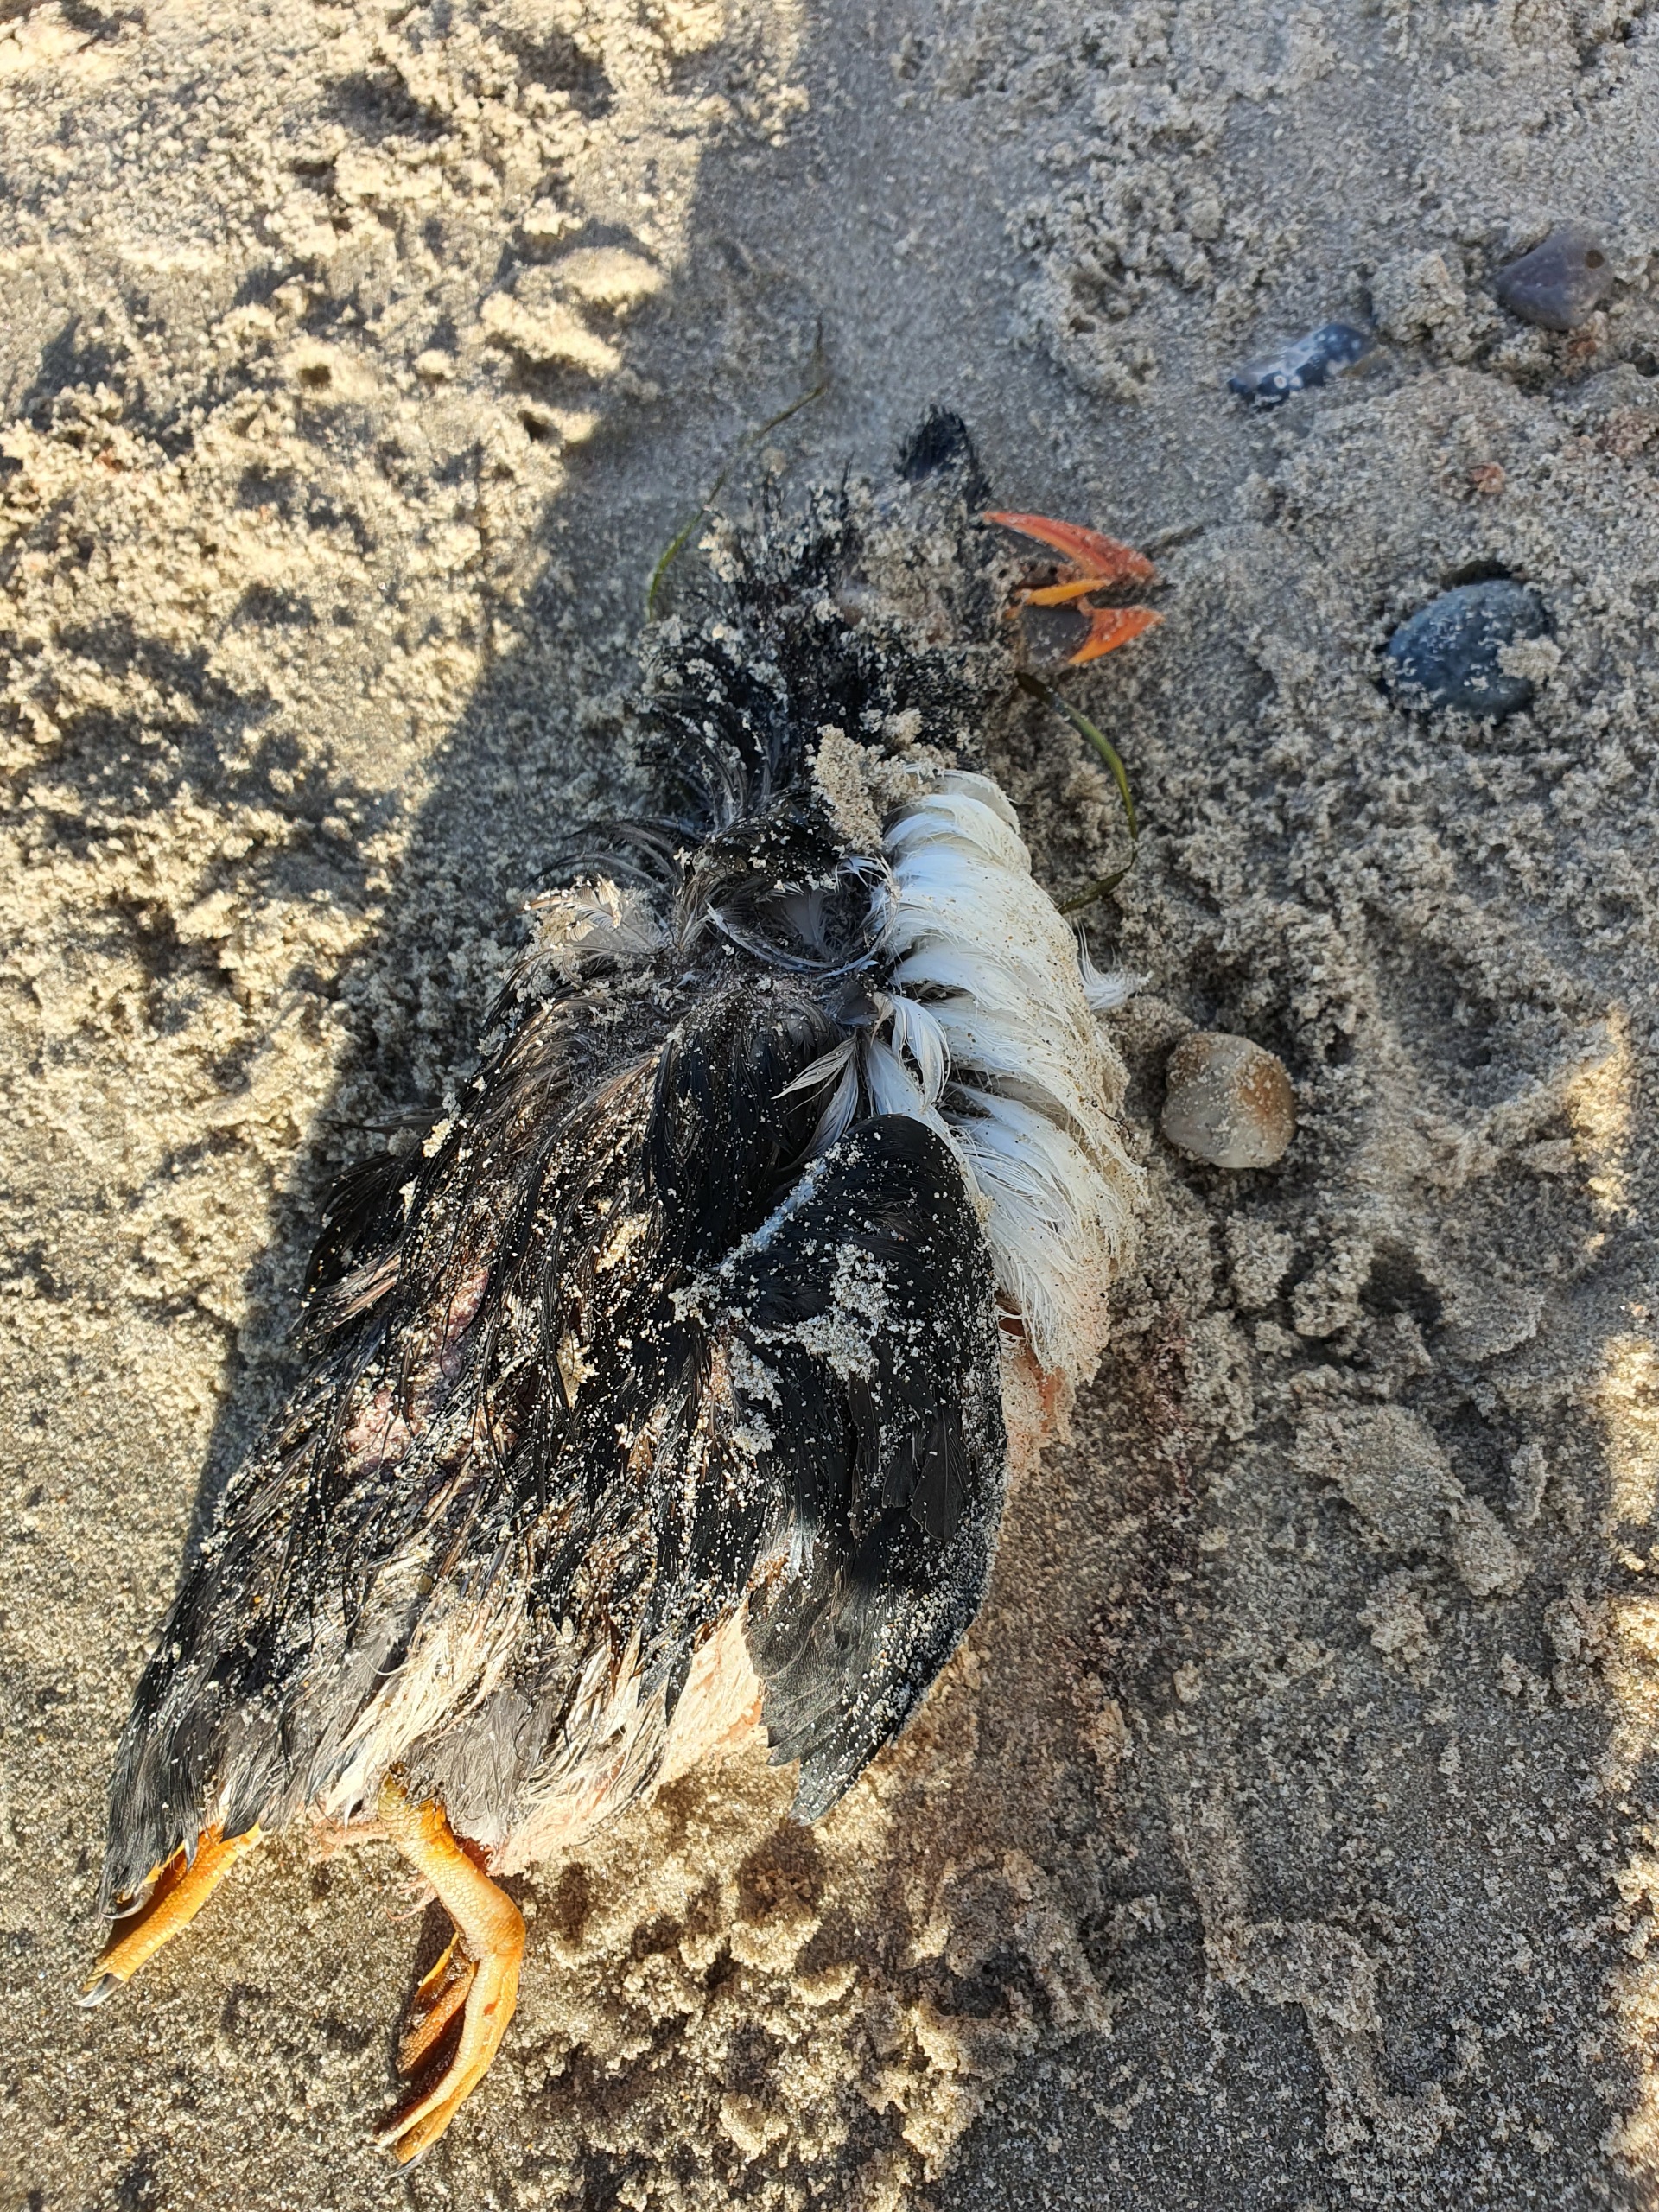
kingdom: Animalia
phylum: Chordata
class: Aves
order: Charadriiformes
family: Alcidae
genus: Fratercula
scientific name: Fratercula arctica
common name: Lunde
